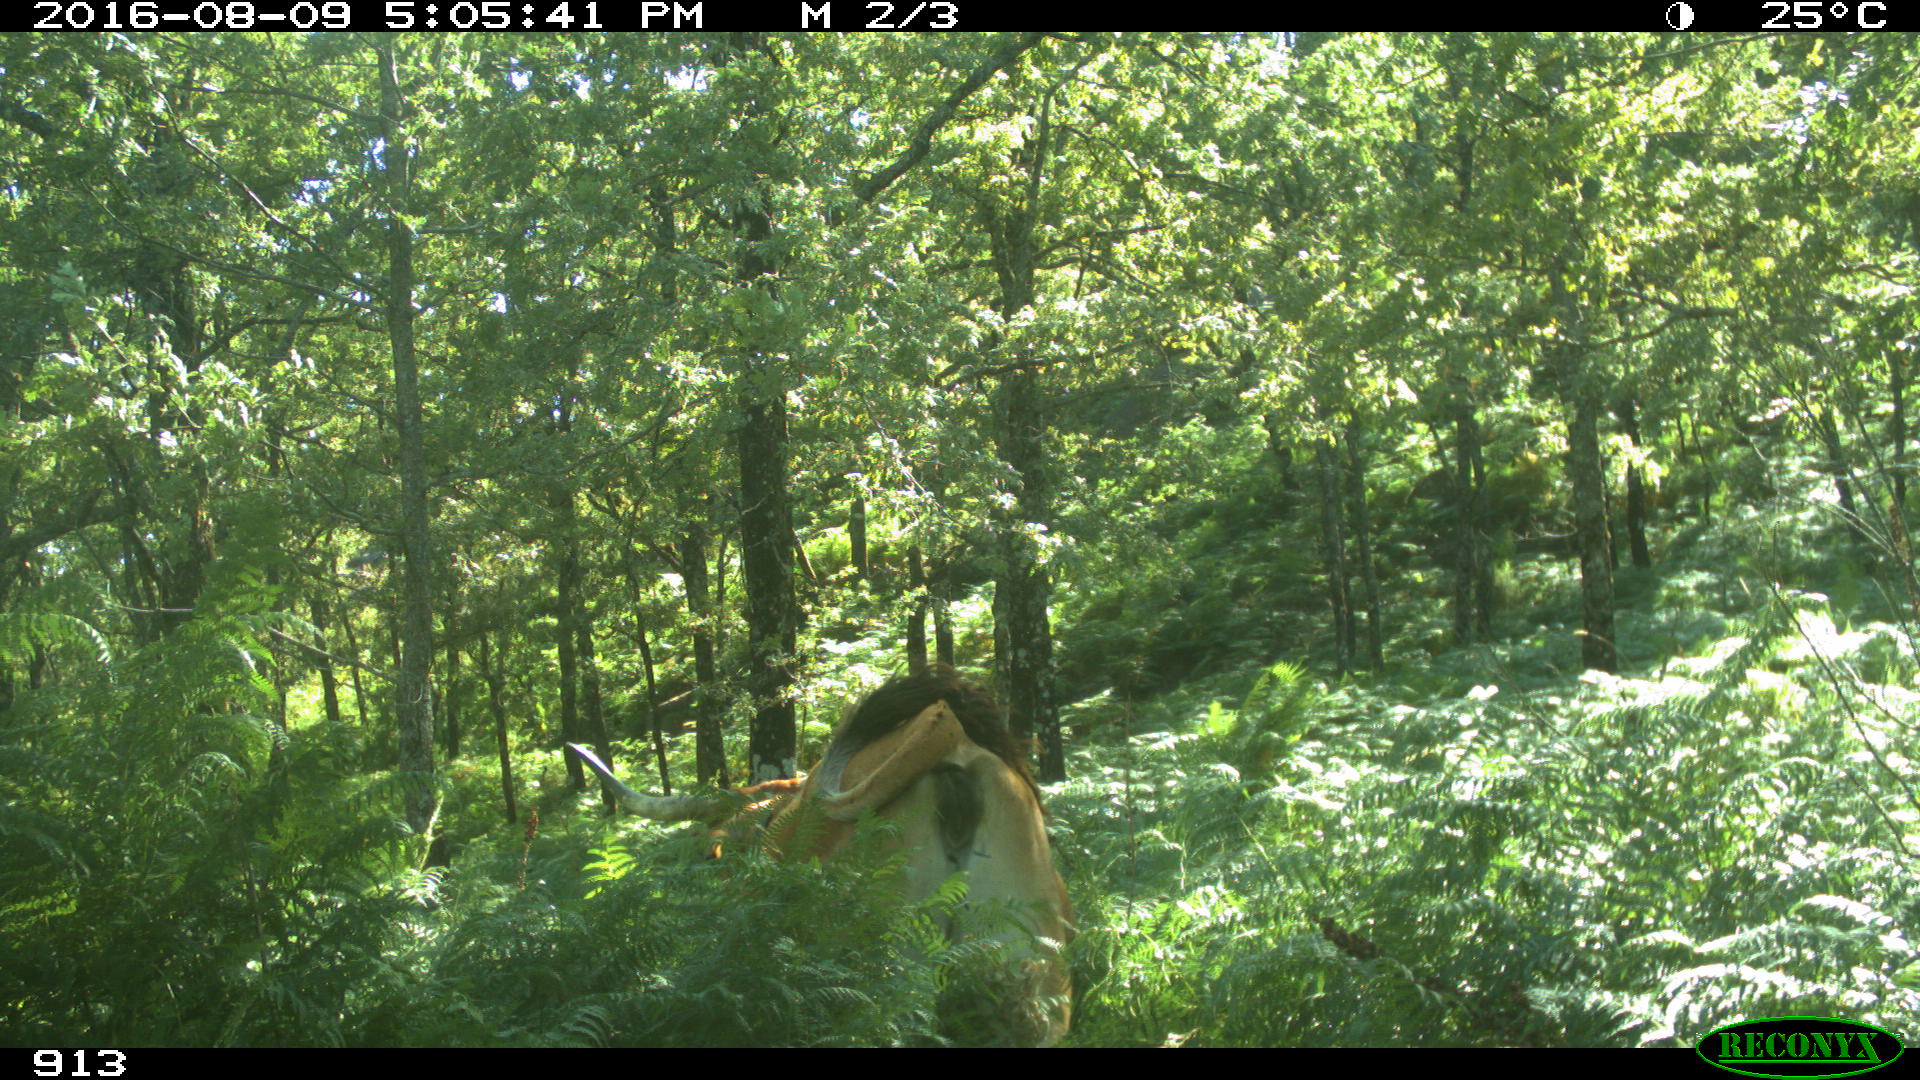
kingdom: Animalia
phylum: Chordata
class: Mammalia
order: Artiodactyla
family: Bovidae
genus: Bos
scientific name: Bos taurus
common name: Domesticated cattle
